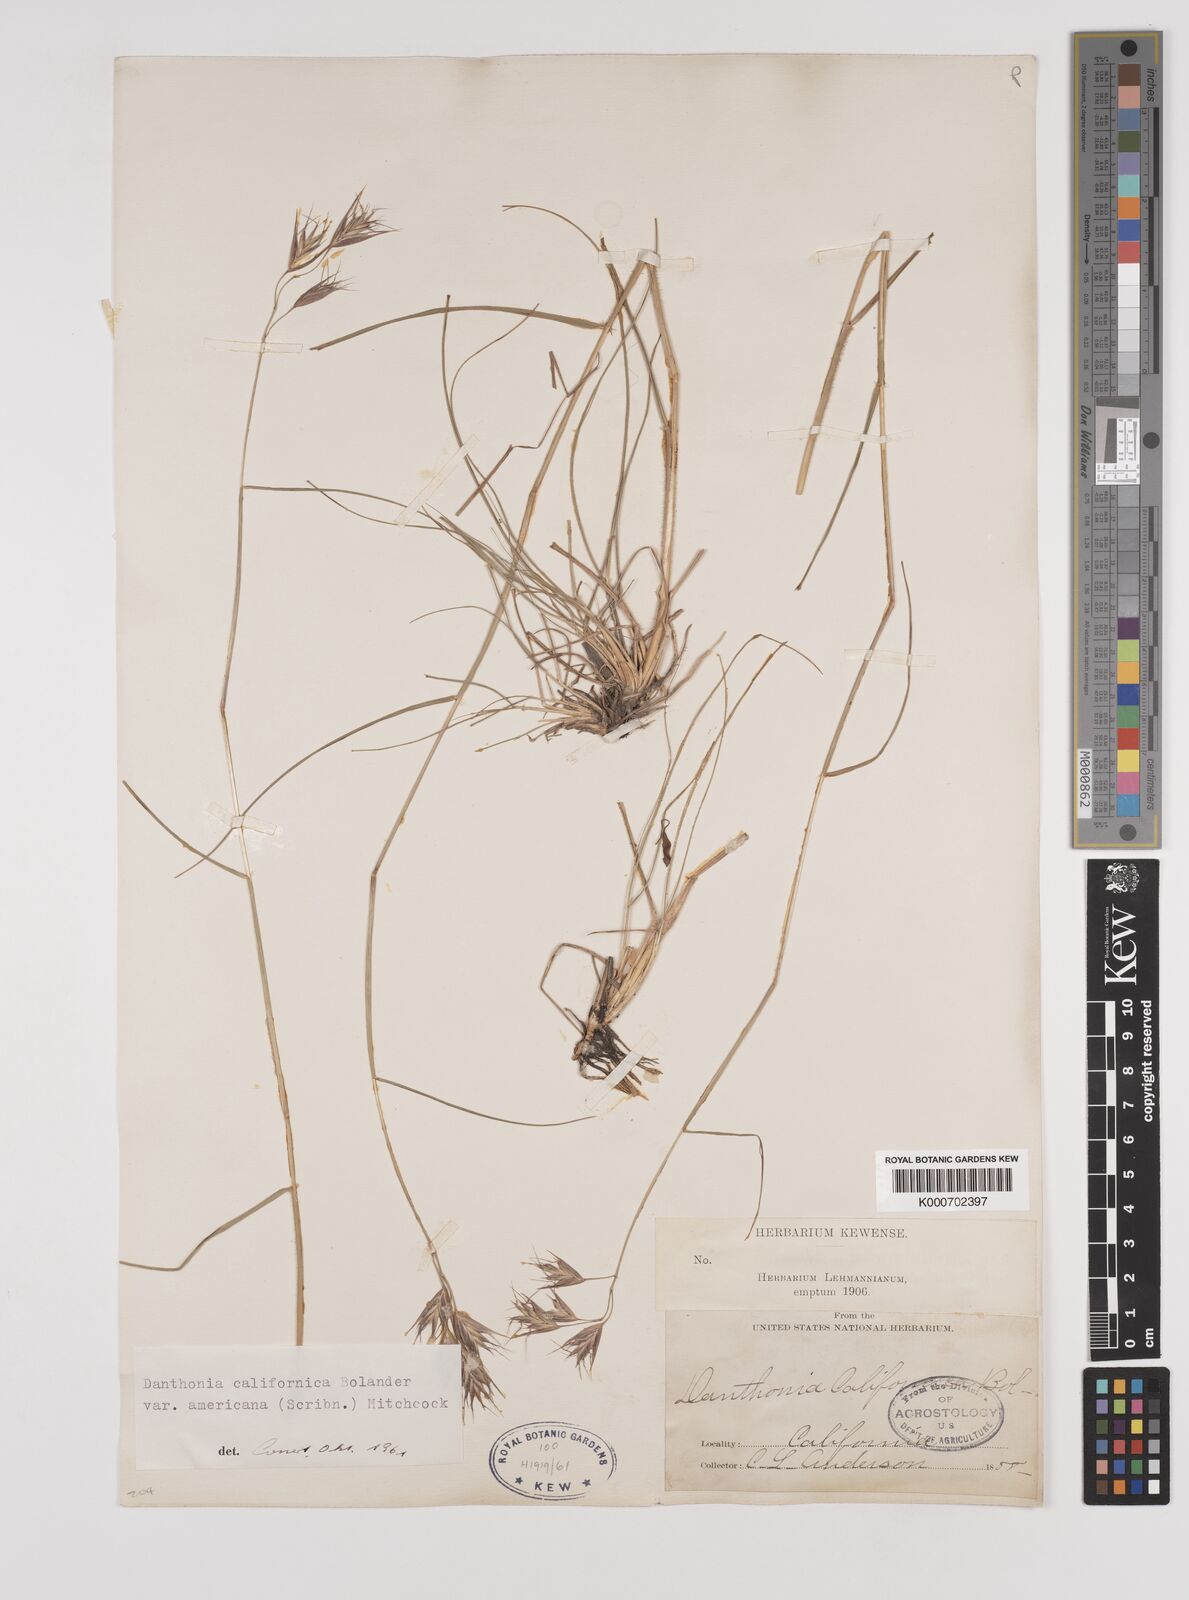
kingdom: Plantae
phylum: Tracheophyta
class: Liliopsida
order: Poales
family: Poaceae
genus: Danthonia
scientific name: Danthonia californica
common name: California oat grass
